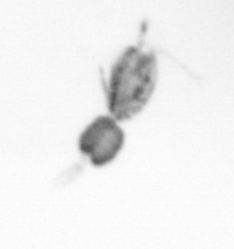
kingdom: Animalia
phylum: Arthropoda
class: Copepoda
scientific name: Copepoda
